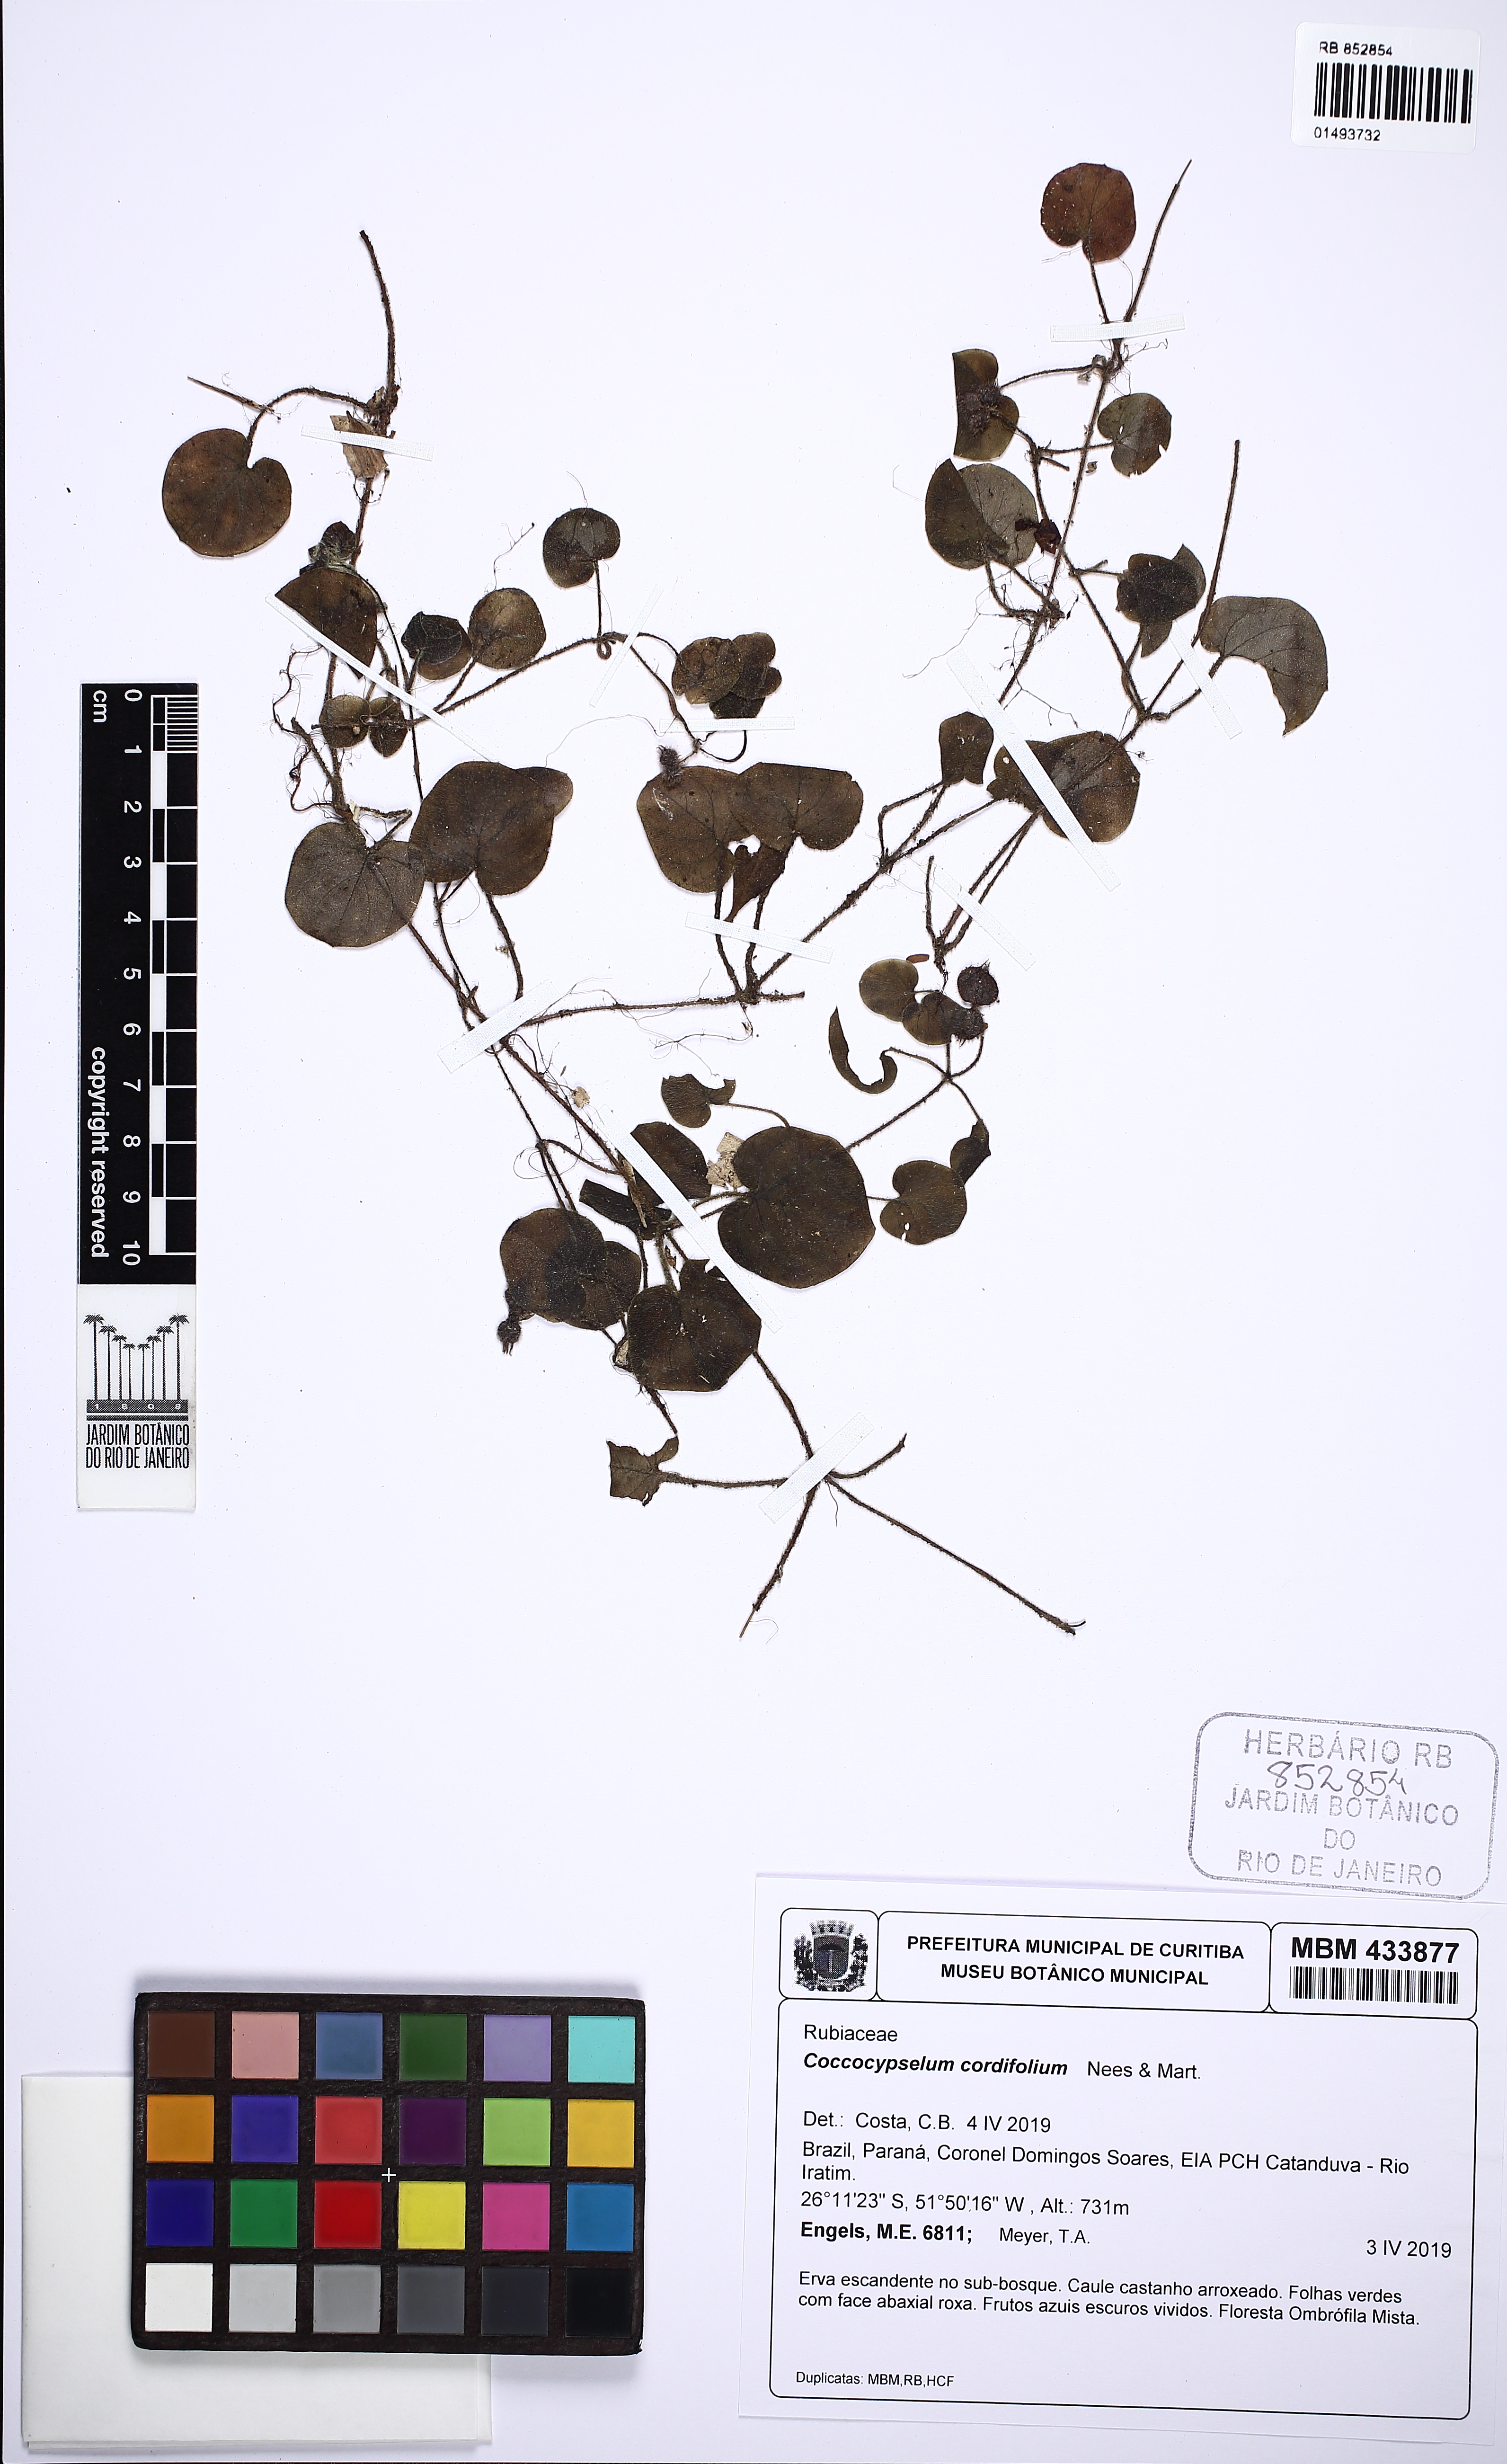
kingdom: Plantae
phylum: Tracheophyta
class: Magnoliopsida
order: Gentianales
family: Rubiaceae
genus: Coccocypselum
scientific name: Coccocypselum cordifolium
